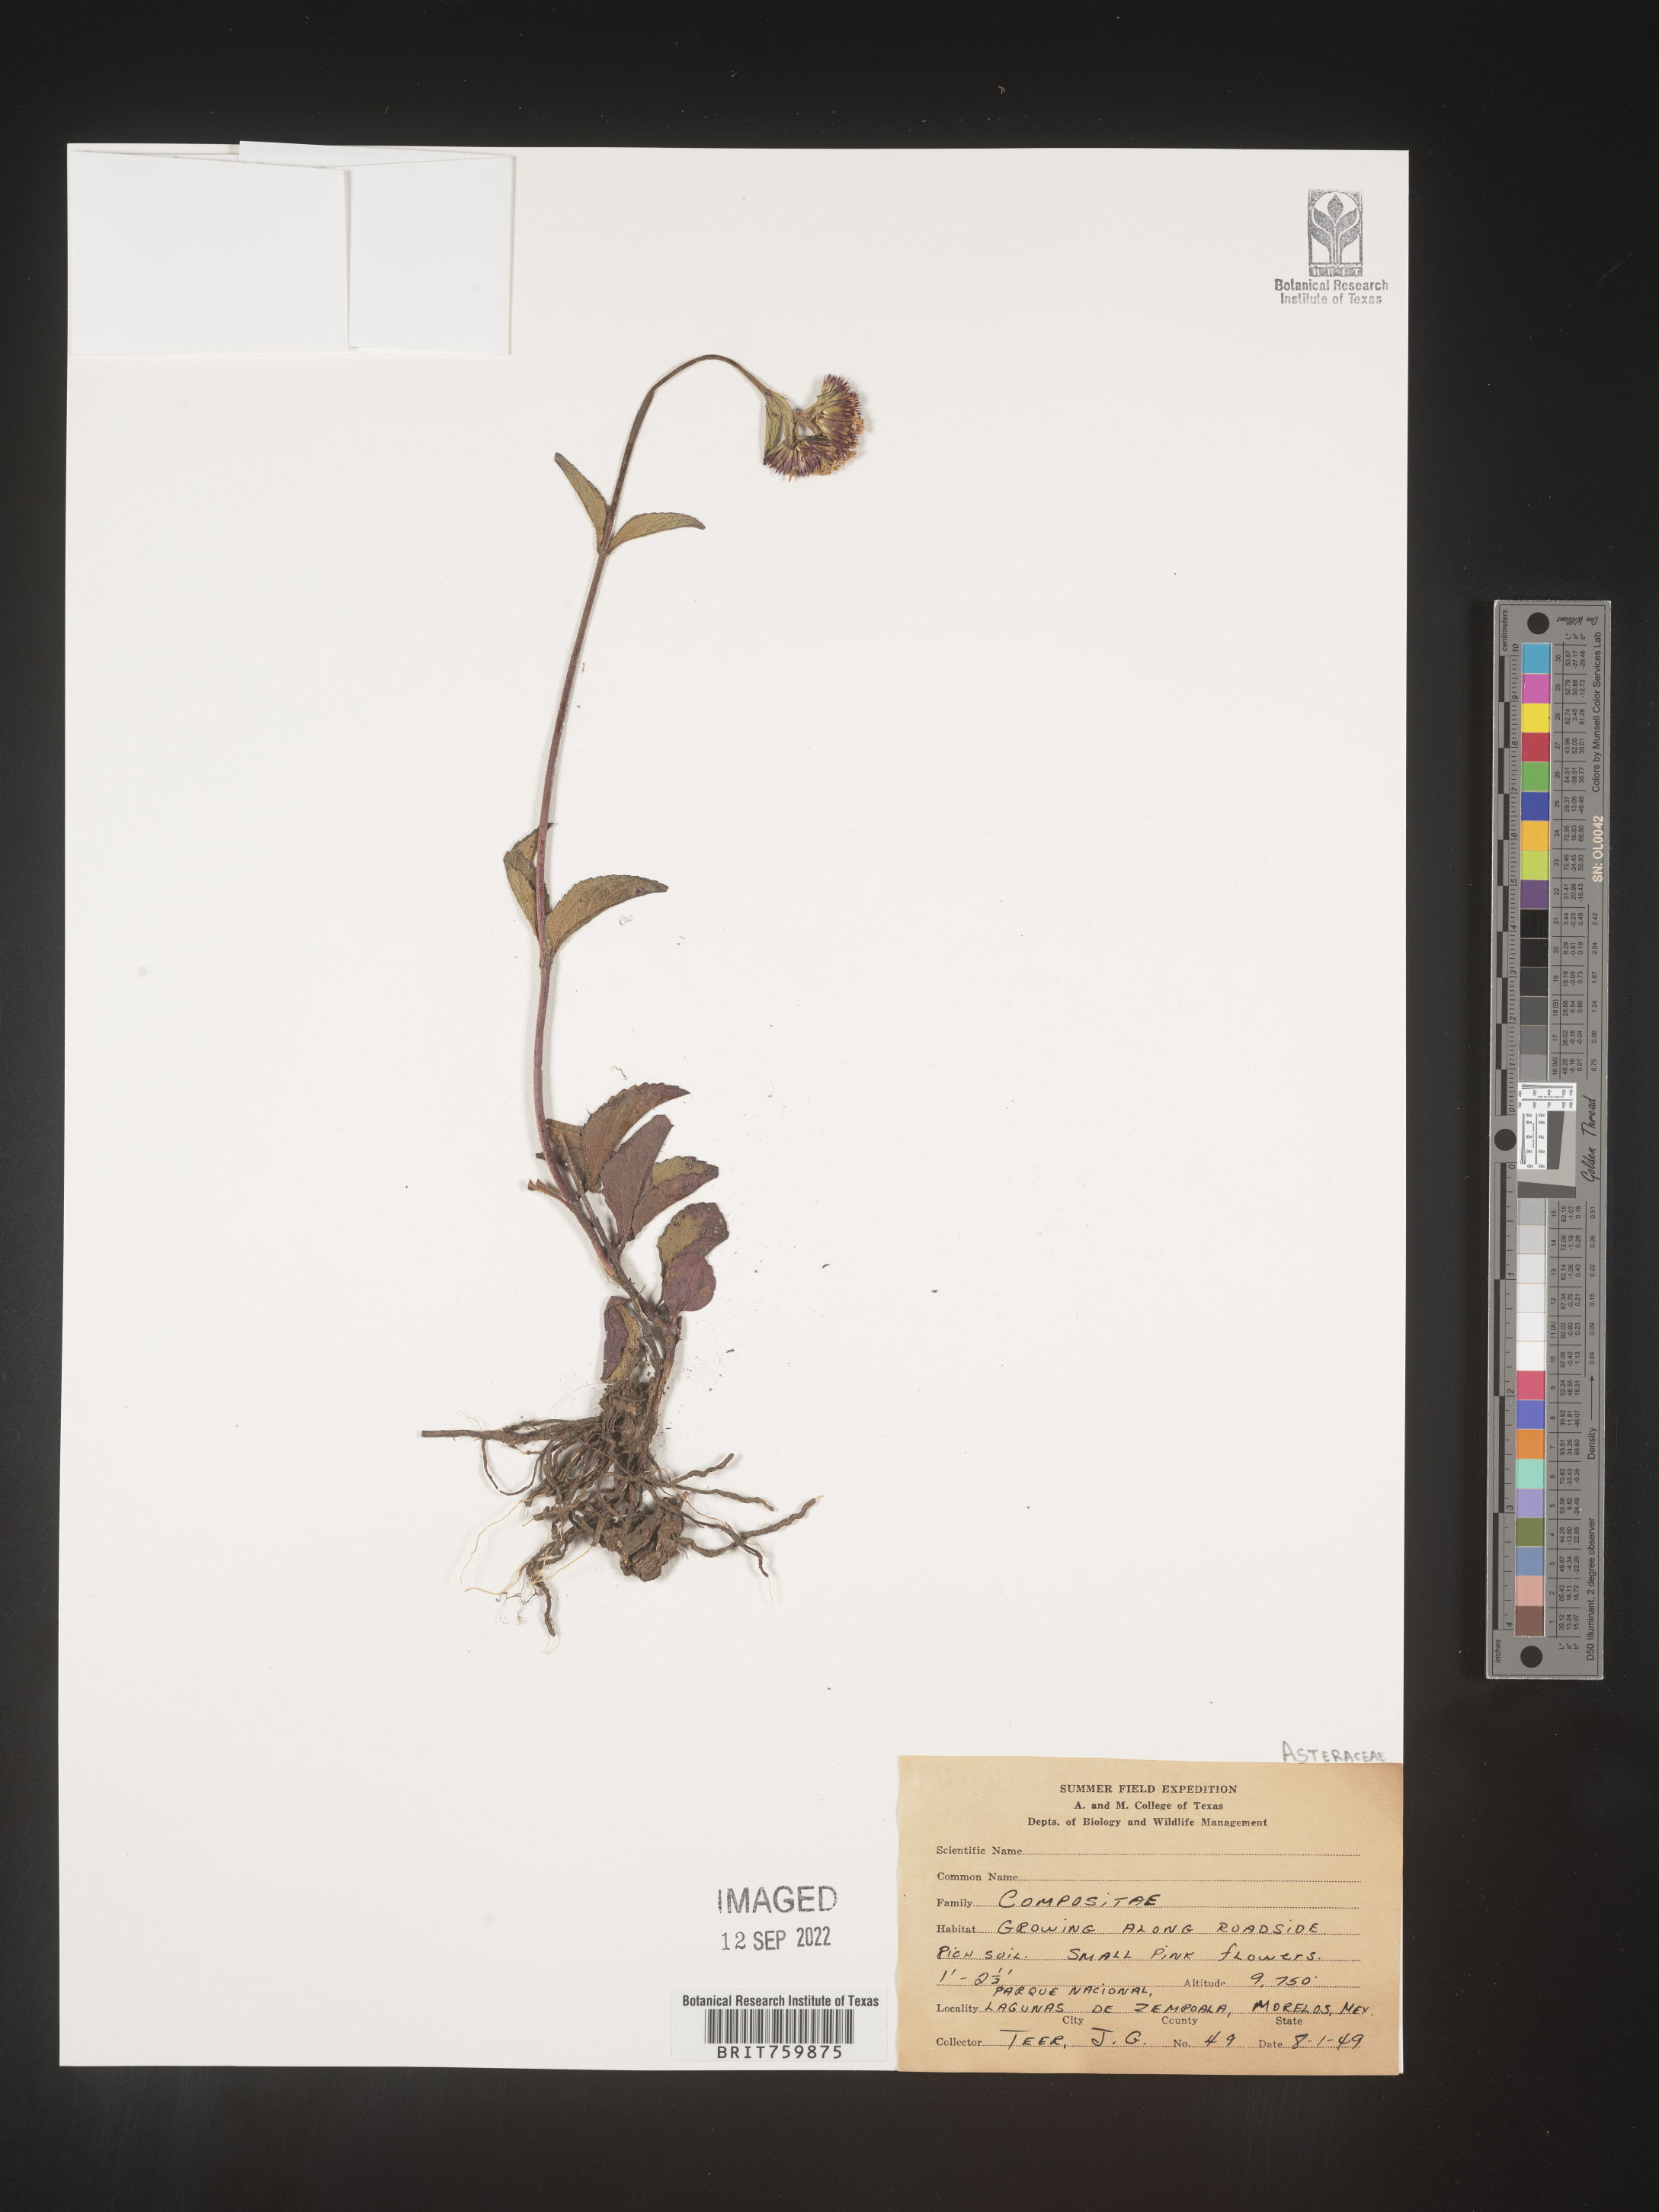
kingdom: Plantae
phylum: Tracheophyta
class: Magnoliopsida
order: Asterales
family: Asteraceae
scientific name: Asteraceae
